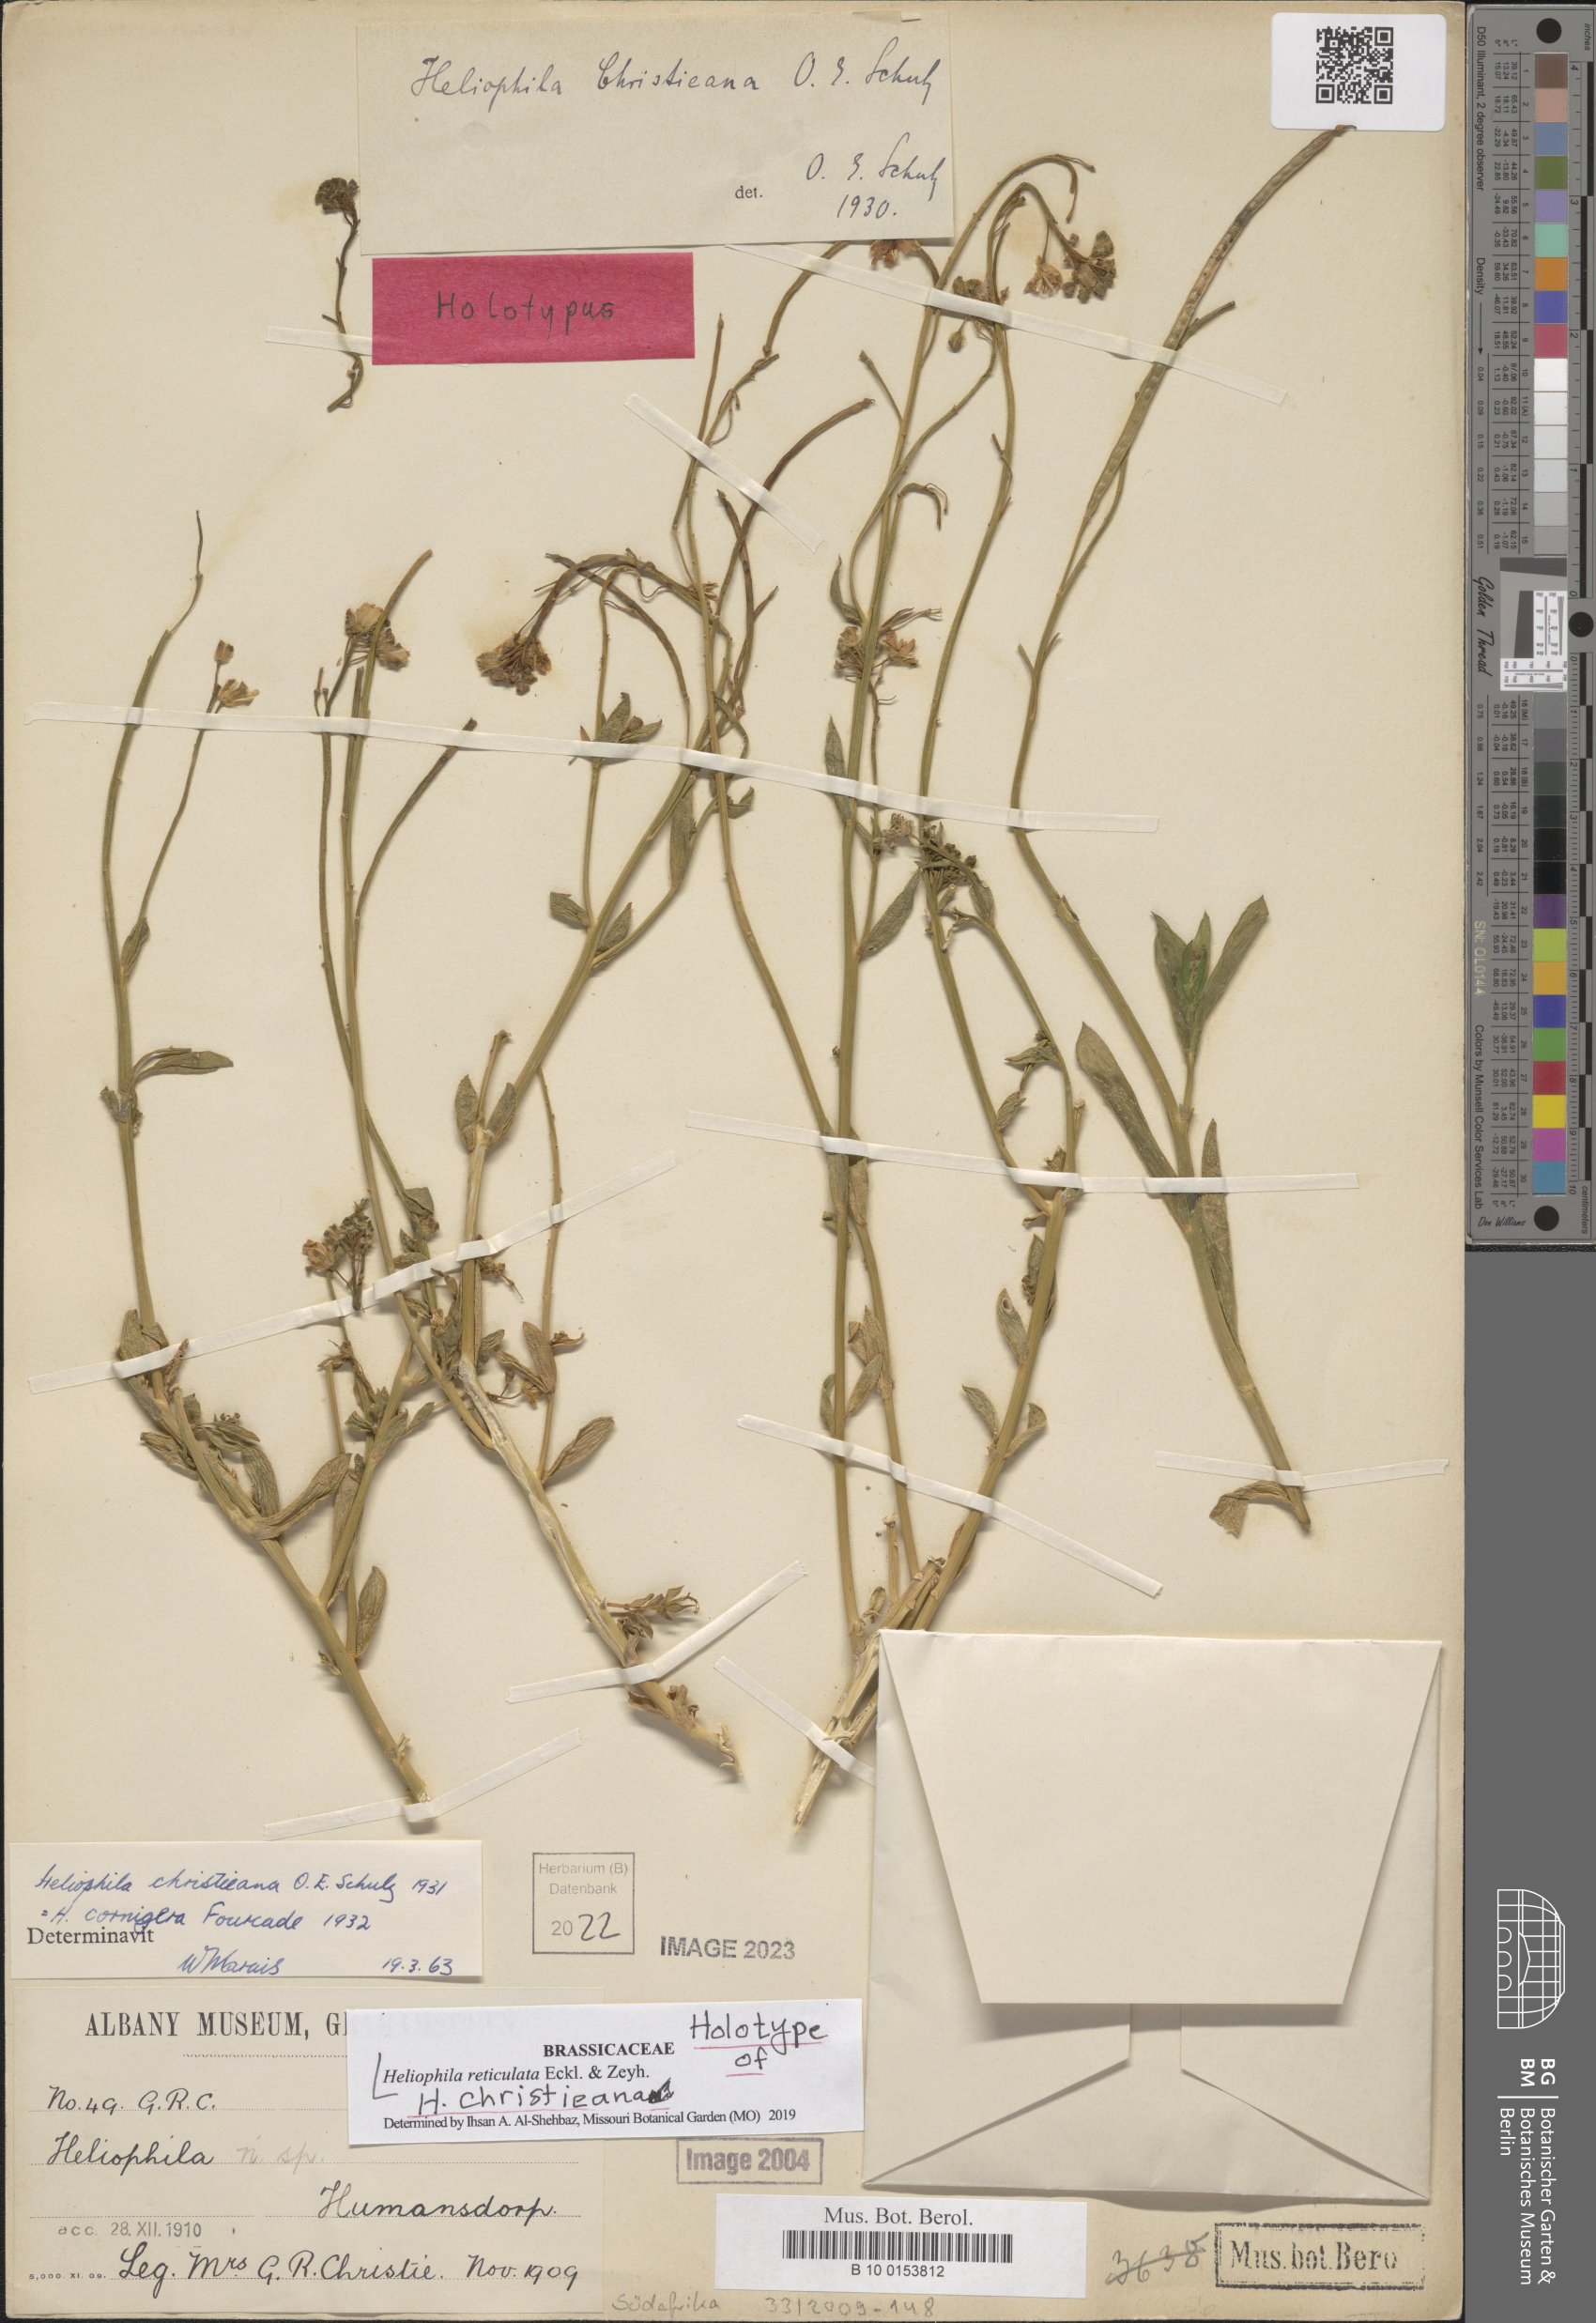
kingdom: Plantae
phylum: Tracheophyta
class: Magnoliopsida
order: Brassicales
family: Brassicaceae
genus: Heliophila
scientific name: Heliophila linearis
